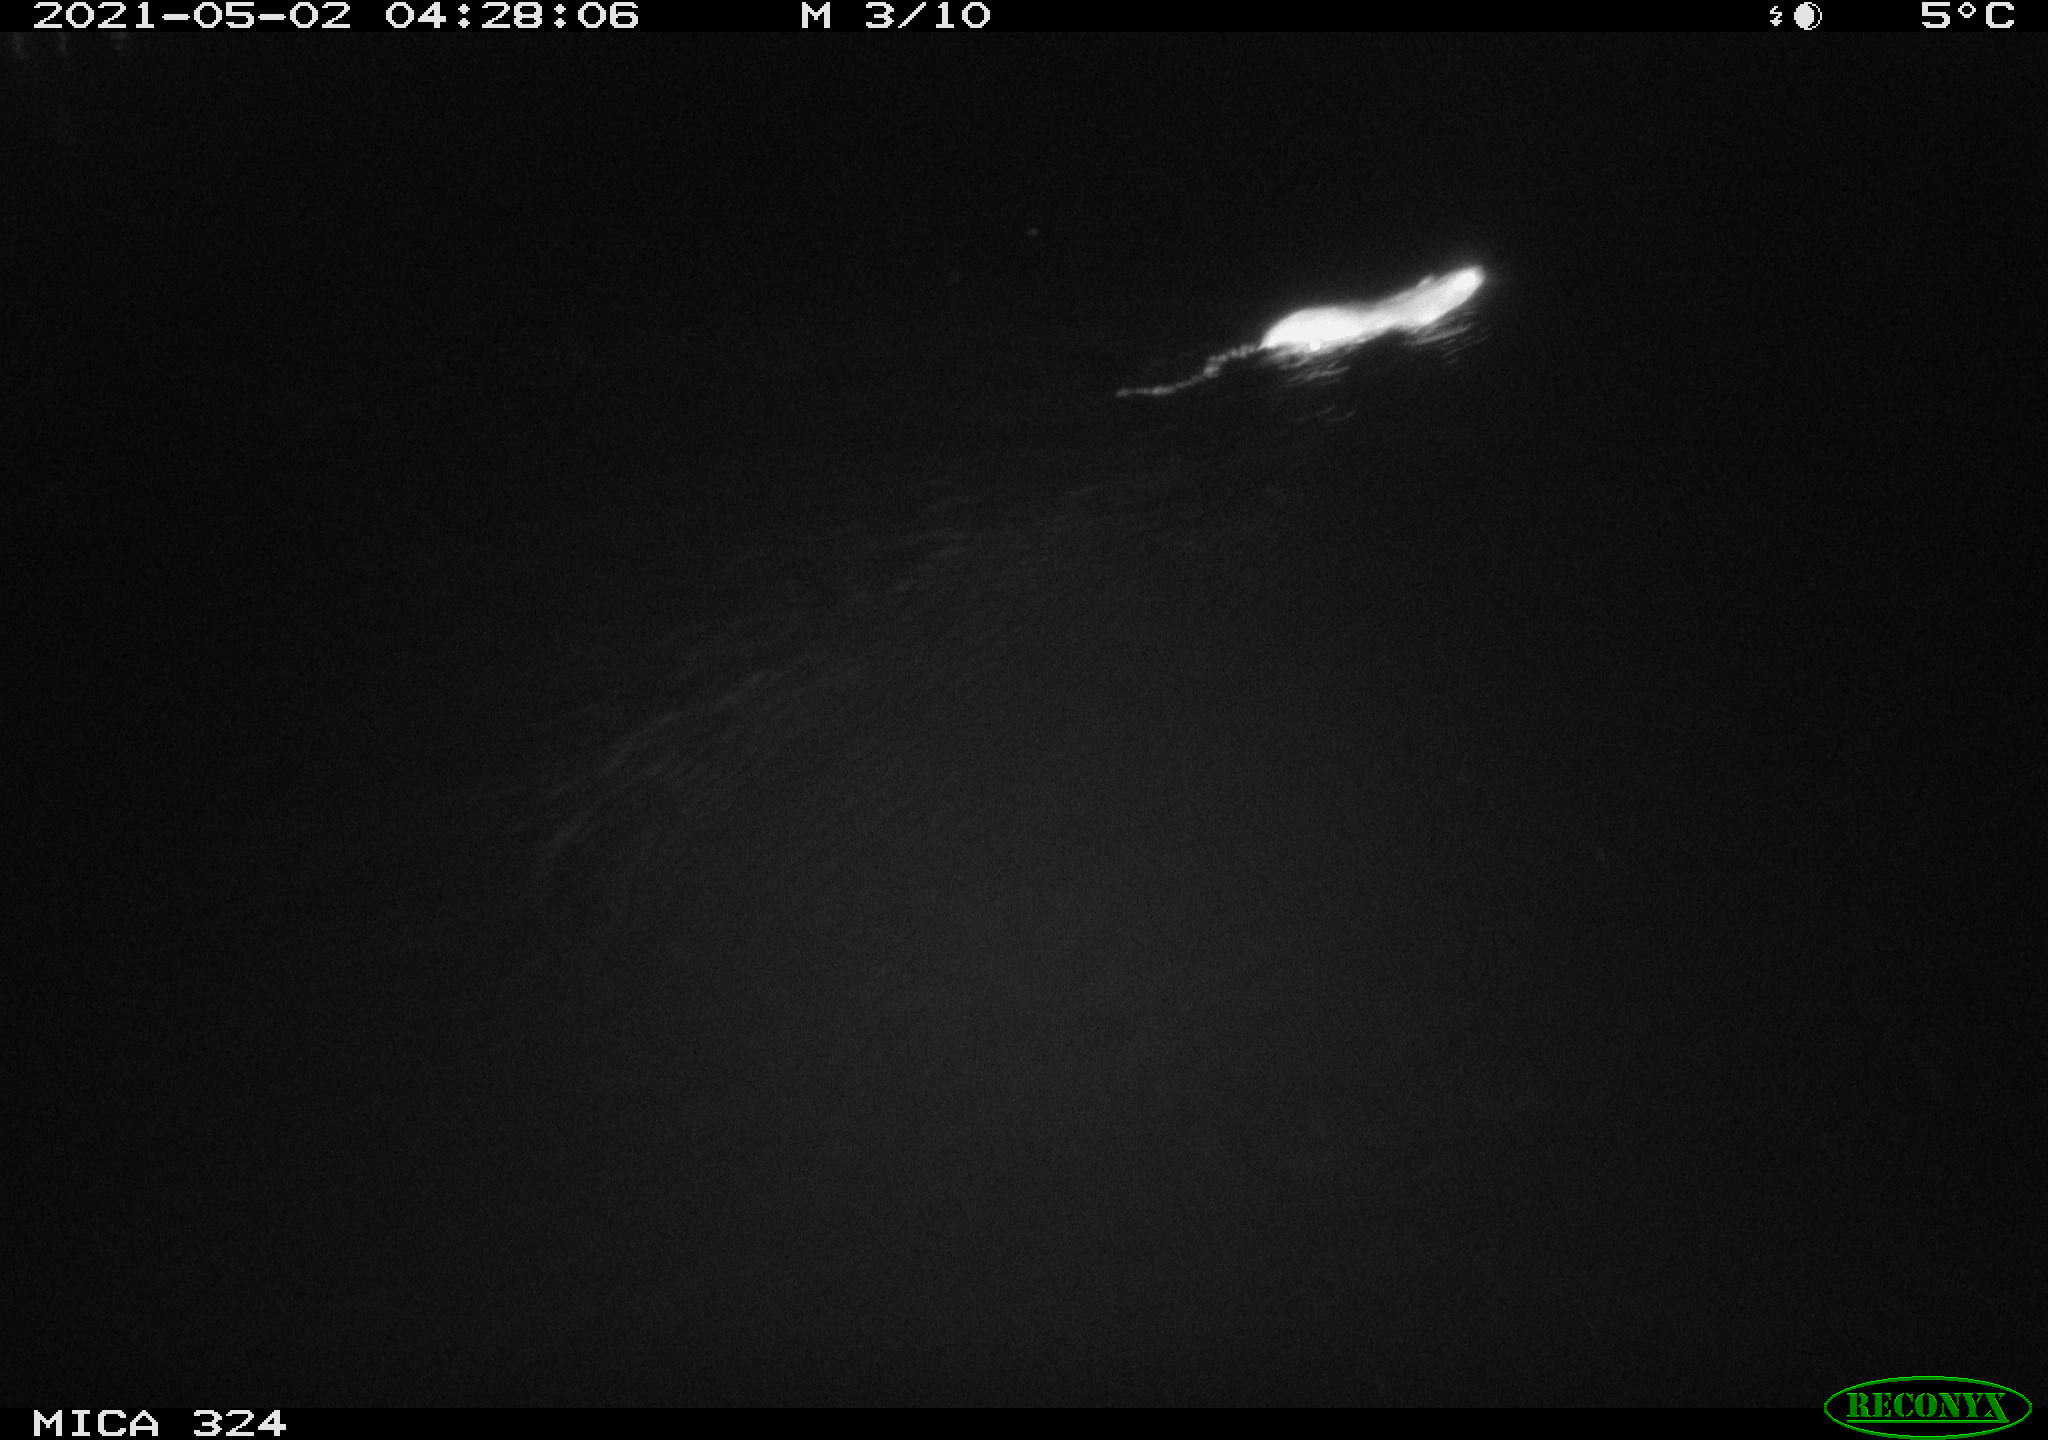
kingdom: Animalia
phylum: Chordata
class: Mammalia
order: Rodentia
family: Muridae
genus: Rattus
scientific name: Rattus norvegicus
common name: Brown rat
